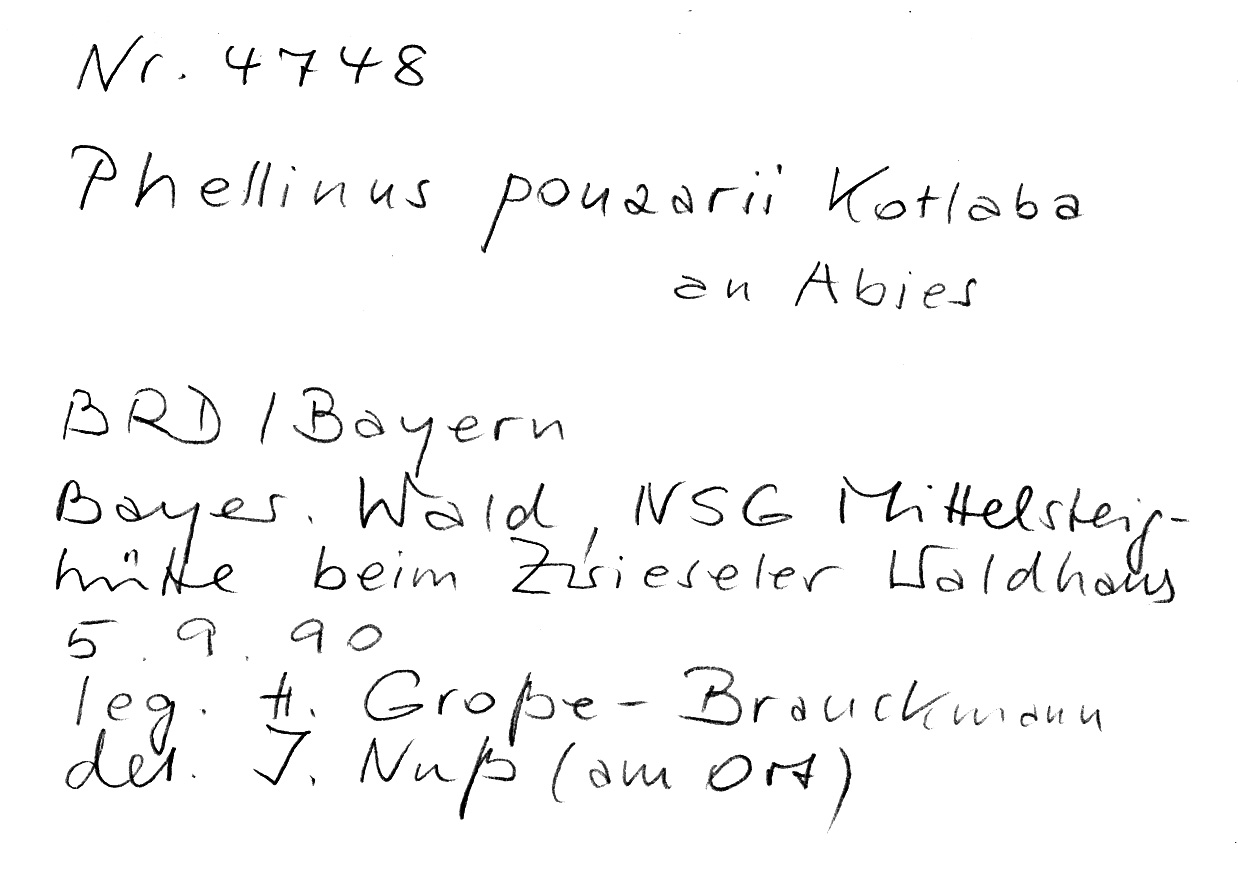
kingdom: Plantae
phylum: Tracheophyta
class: Pinopsida
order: Pinales
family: Pinaceae
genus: Abies
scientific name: Abies
